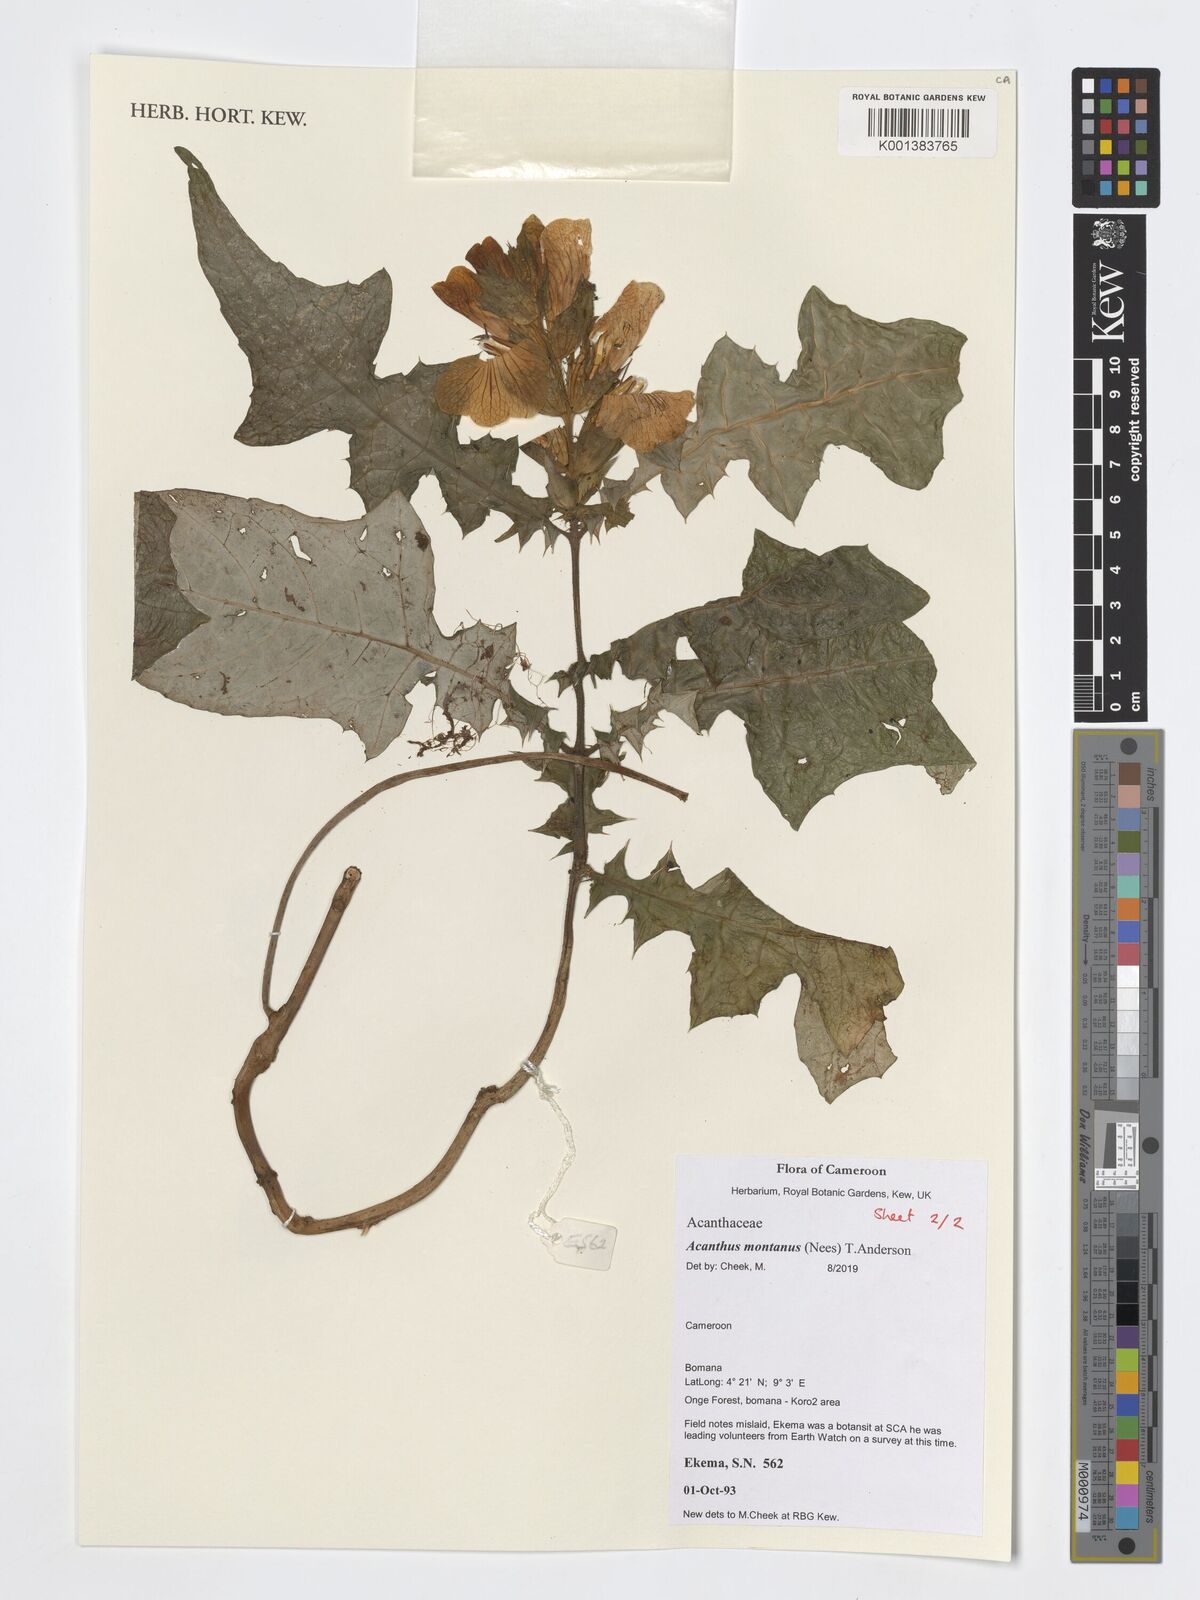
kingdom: Plantae
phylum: Tracheophyta
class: Magnoliopsida
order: Lamiales
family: Acanthaceae
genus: Acanthus
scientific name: Acanthus montanus
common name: Mountain thistle
